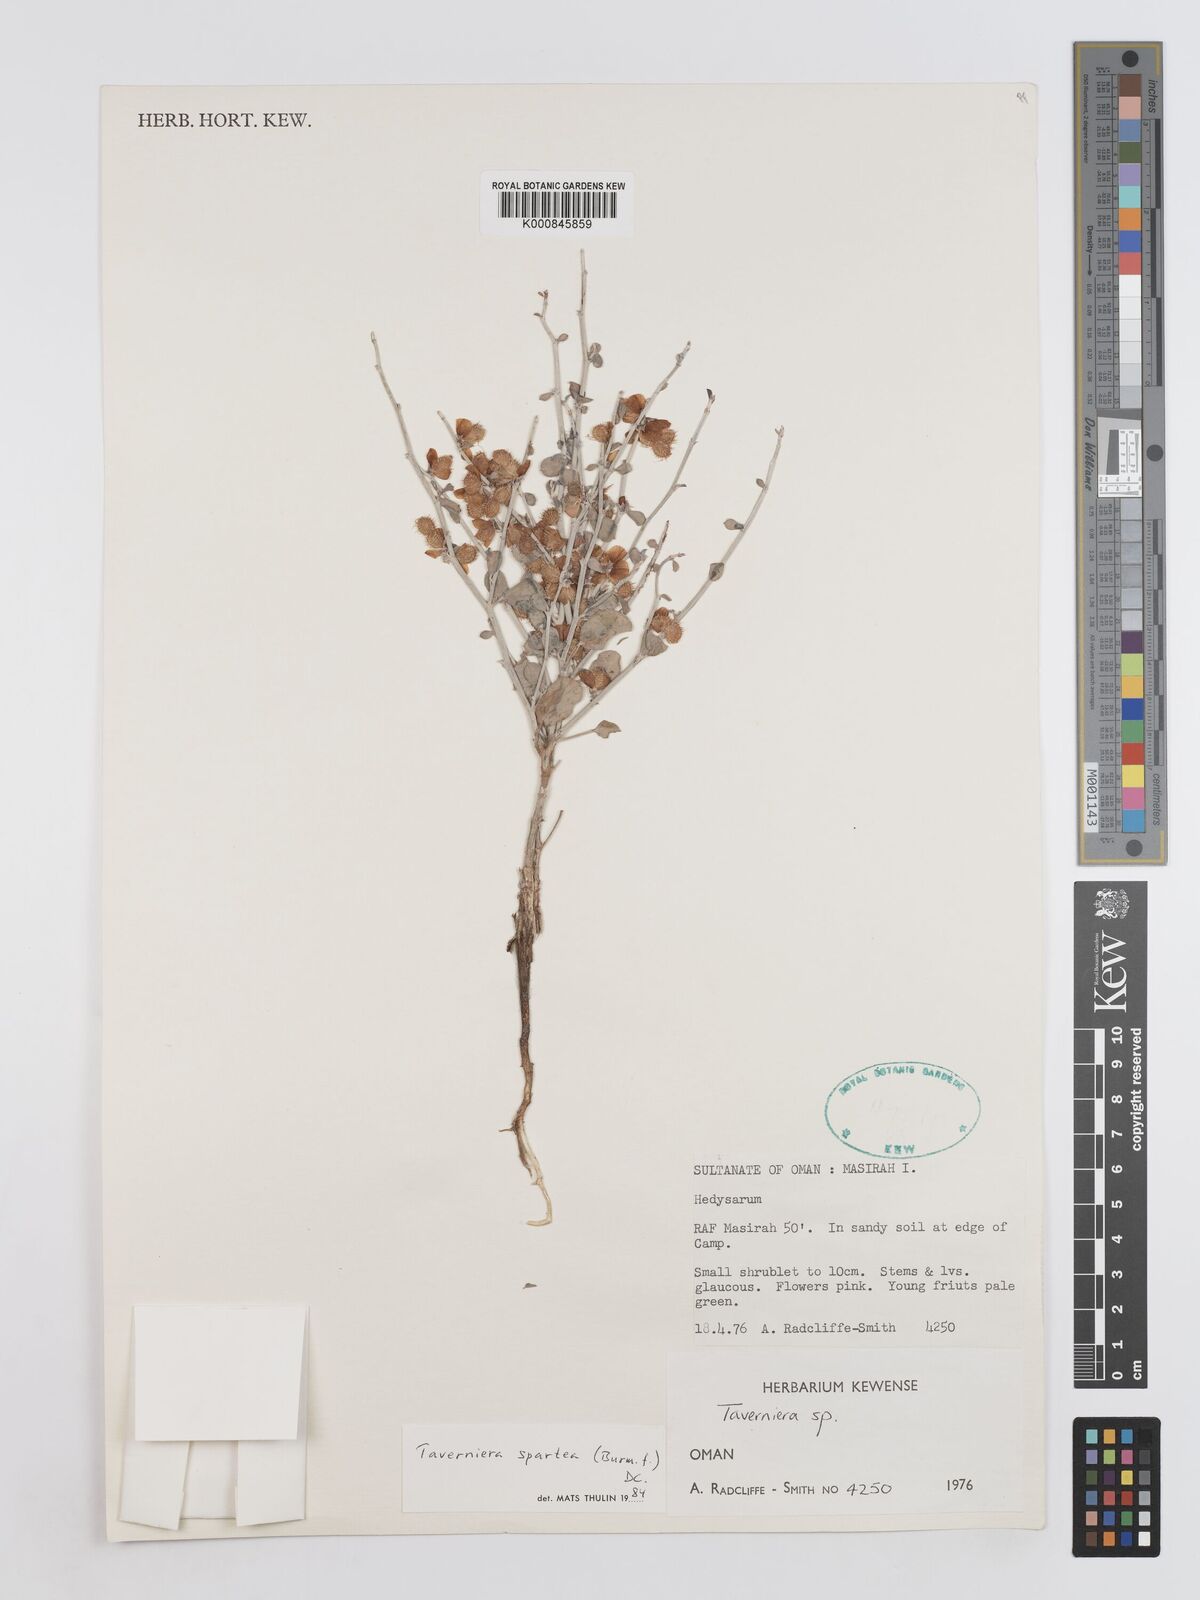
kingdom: Plantae
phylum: Tracheophyta
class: Magnoliopsida
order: Fabales
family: Fabaceae
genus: Taverniera
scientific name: Taverniera spartea
